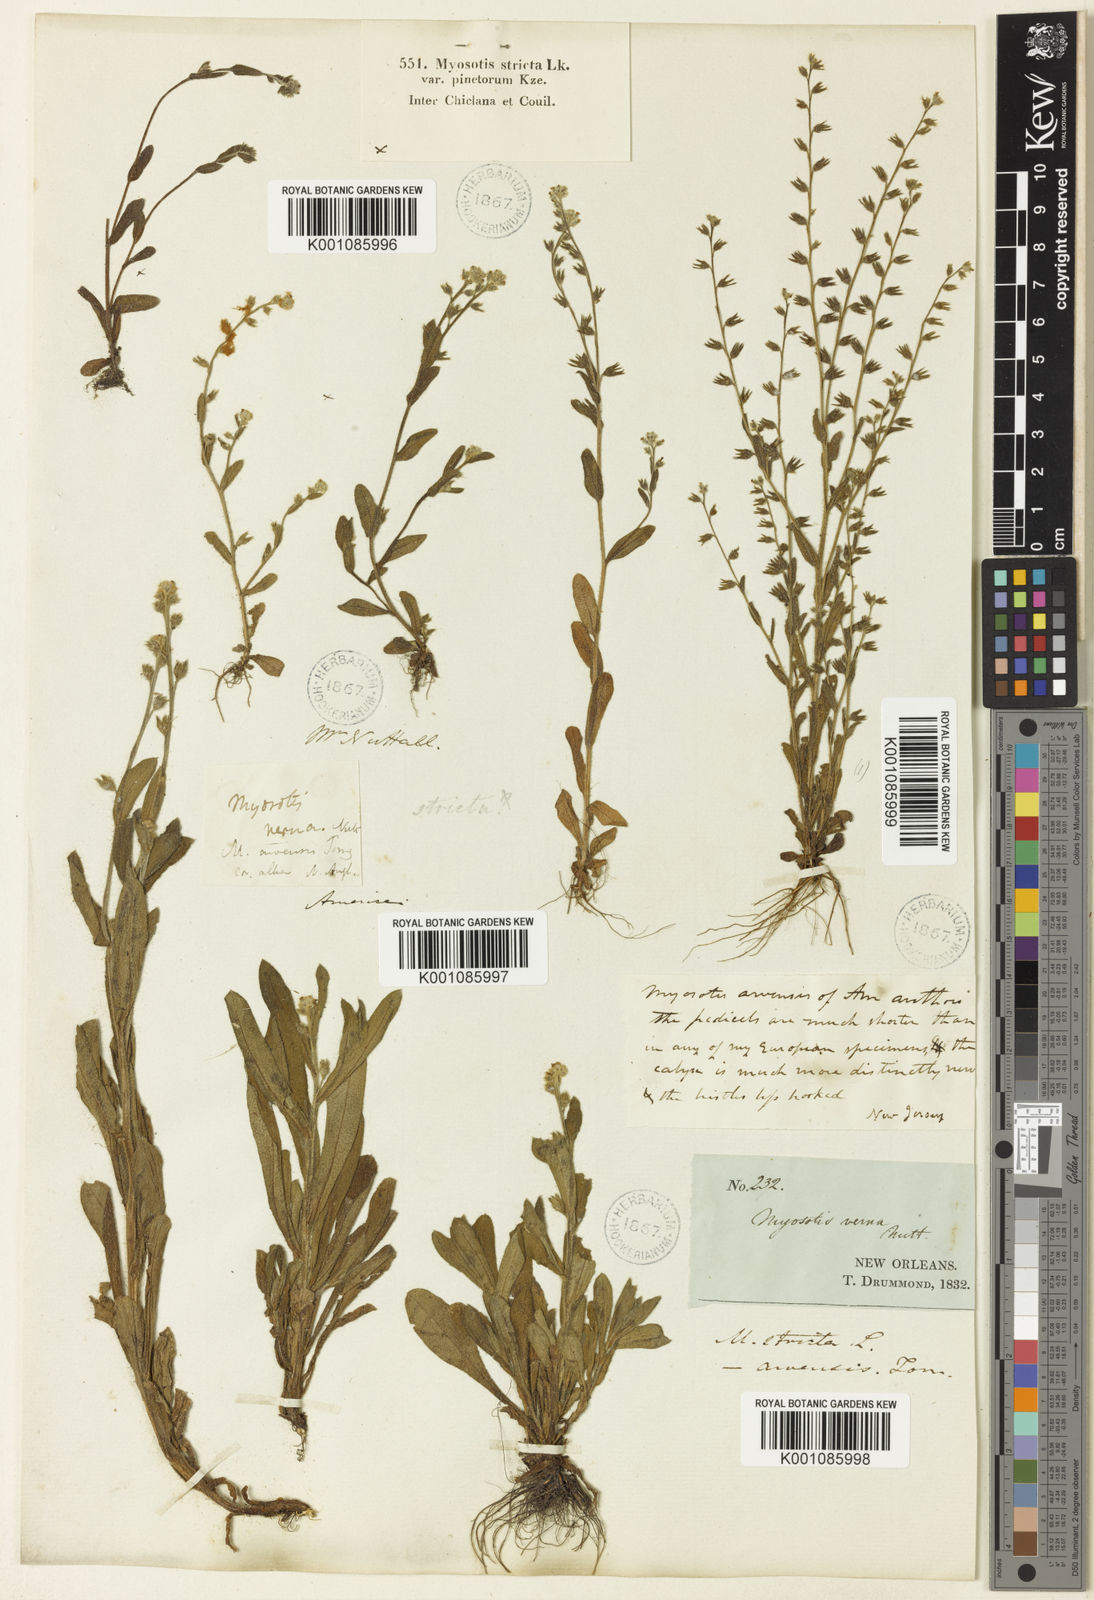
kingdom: Plantae
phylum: Tracheophyta
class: Magnoliopsida
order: Boraginales
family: Boraginaceae
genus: Myosotis
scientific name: Myosotis verna
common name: Early forget-me-not
